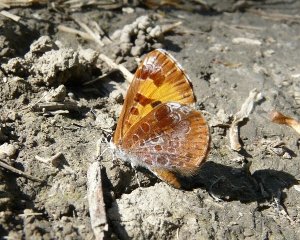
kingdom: Animalia
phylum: Arthropoda
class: Insecta
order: Lepidoptera
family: Lycaenidae
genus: Feniseca
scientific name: Feniseca tarquinius
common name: Harvester
